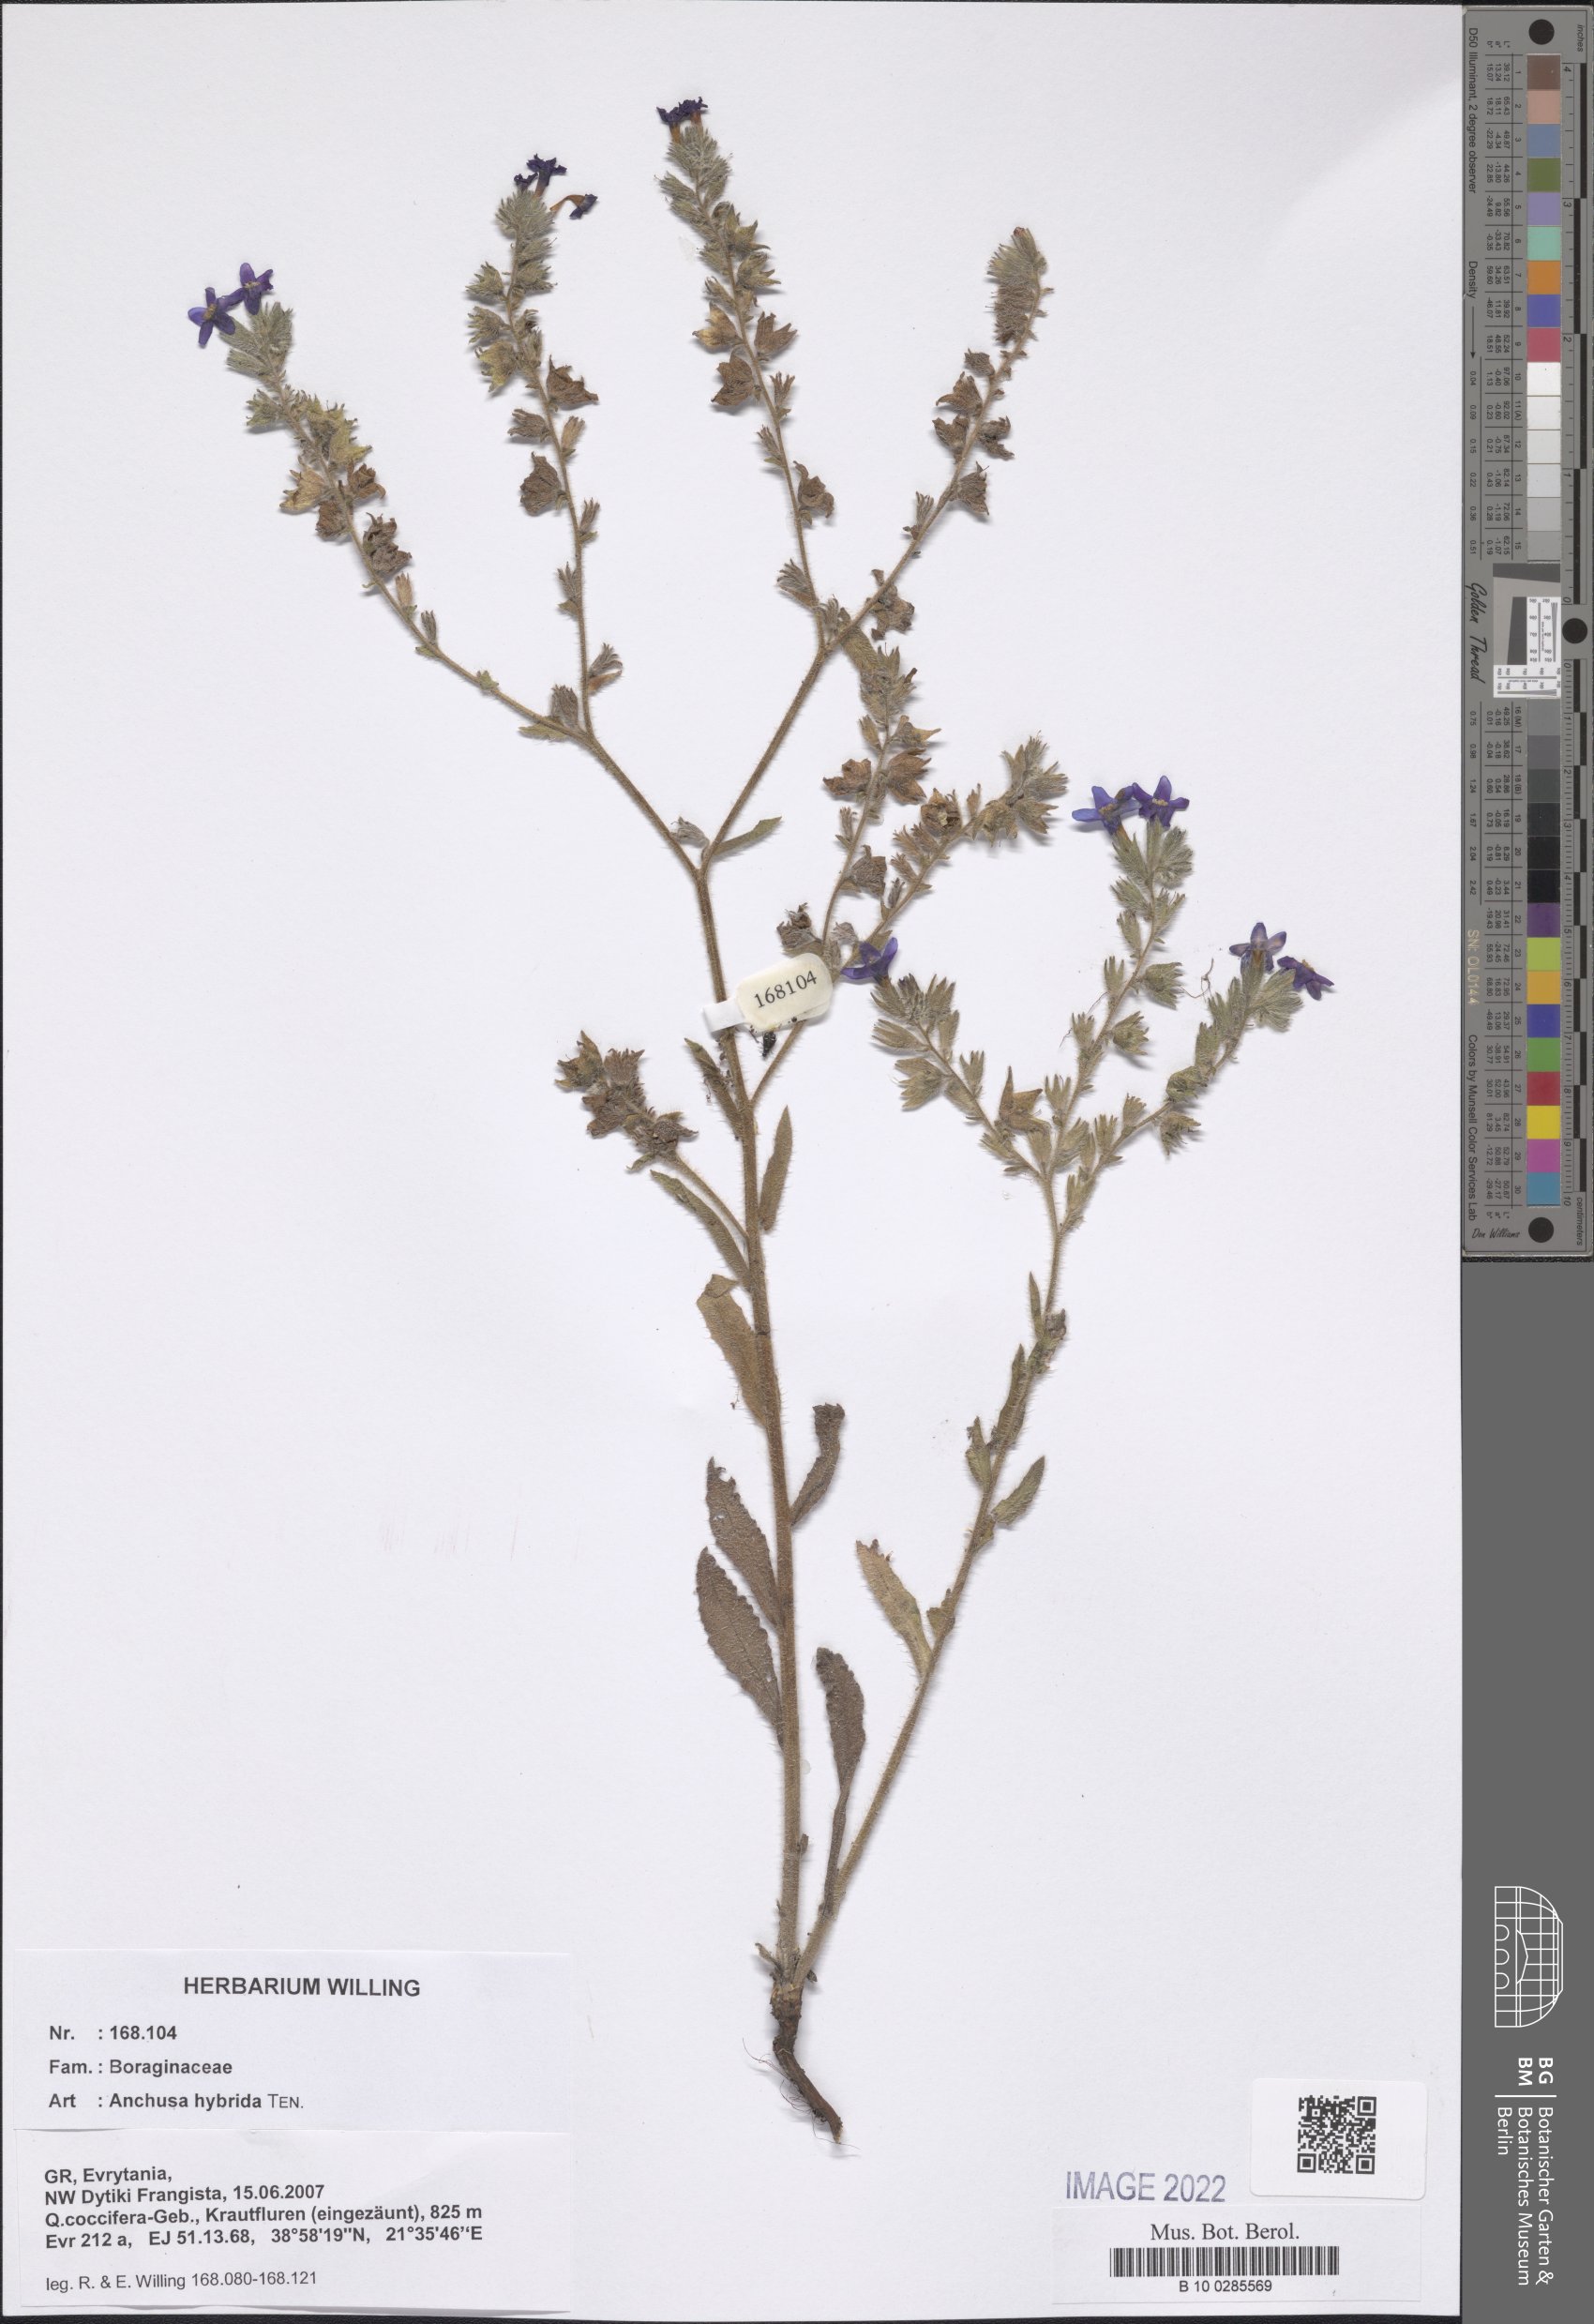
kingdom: Plantae
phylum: Tracheophyta
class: Magnoliopsida
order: Boraginales
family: Boraginaceae
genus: Anchusa
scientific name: Anchusa hybrida
